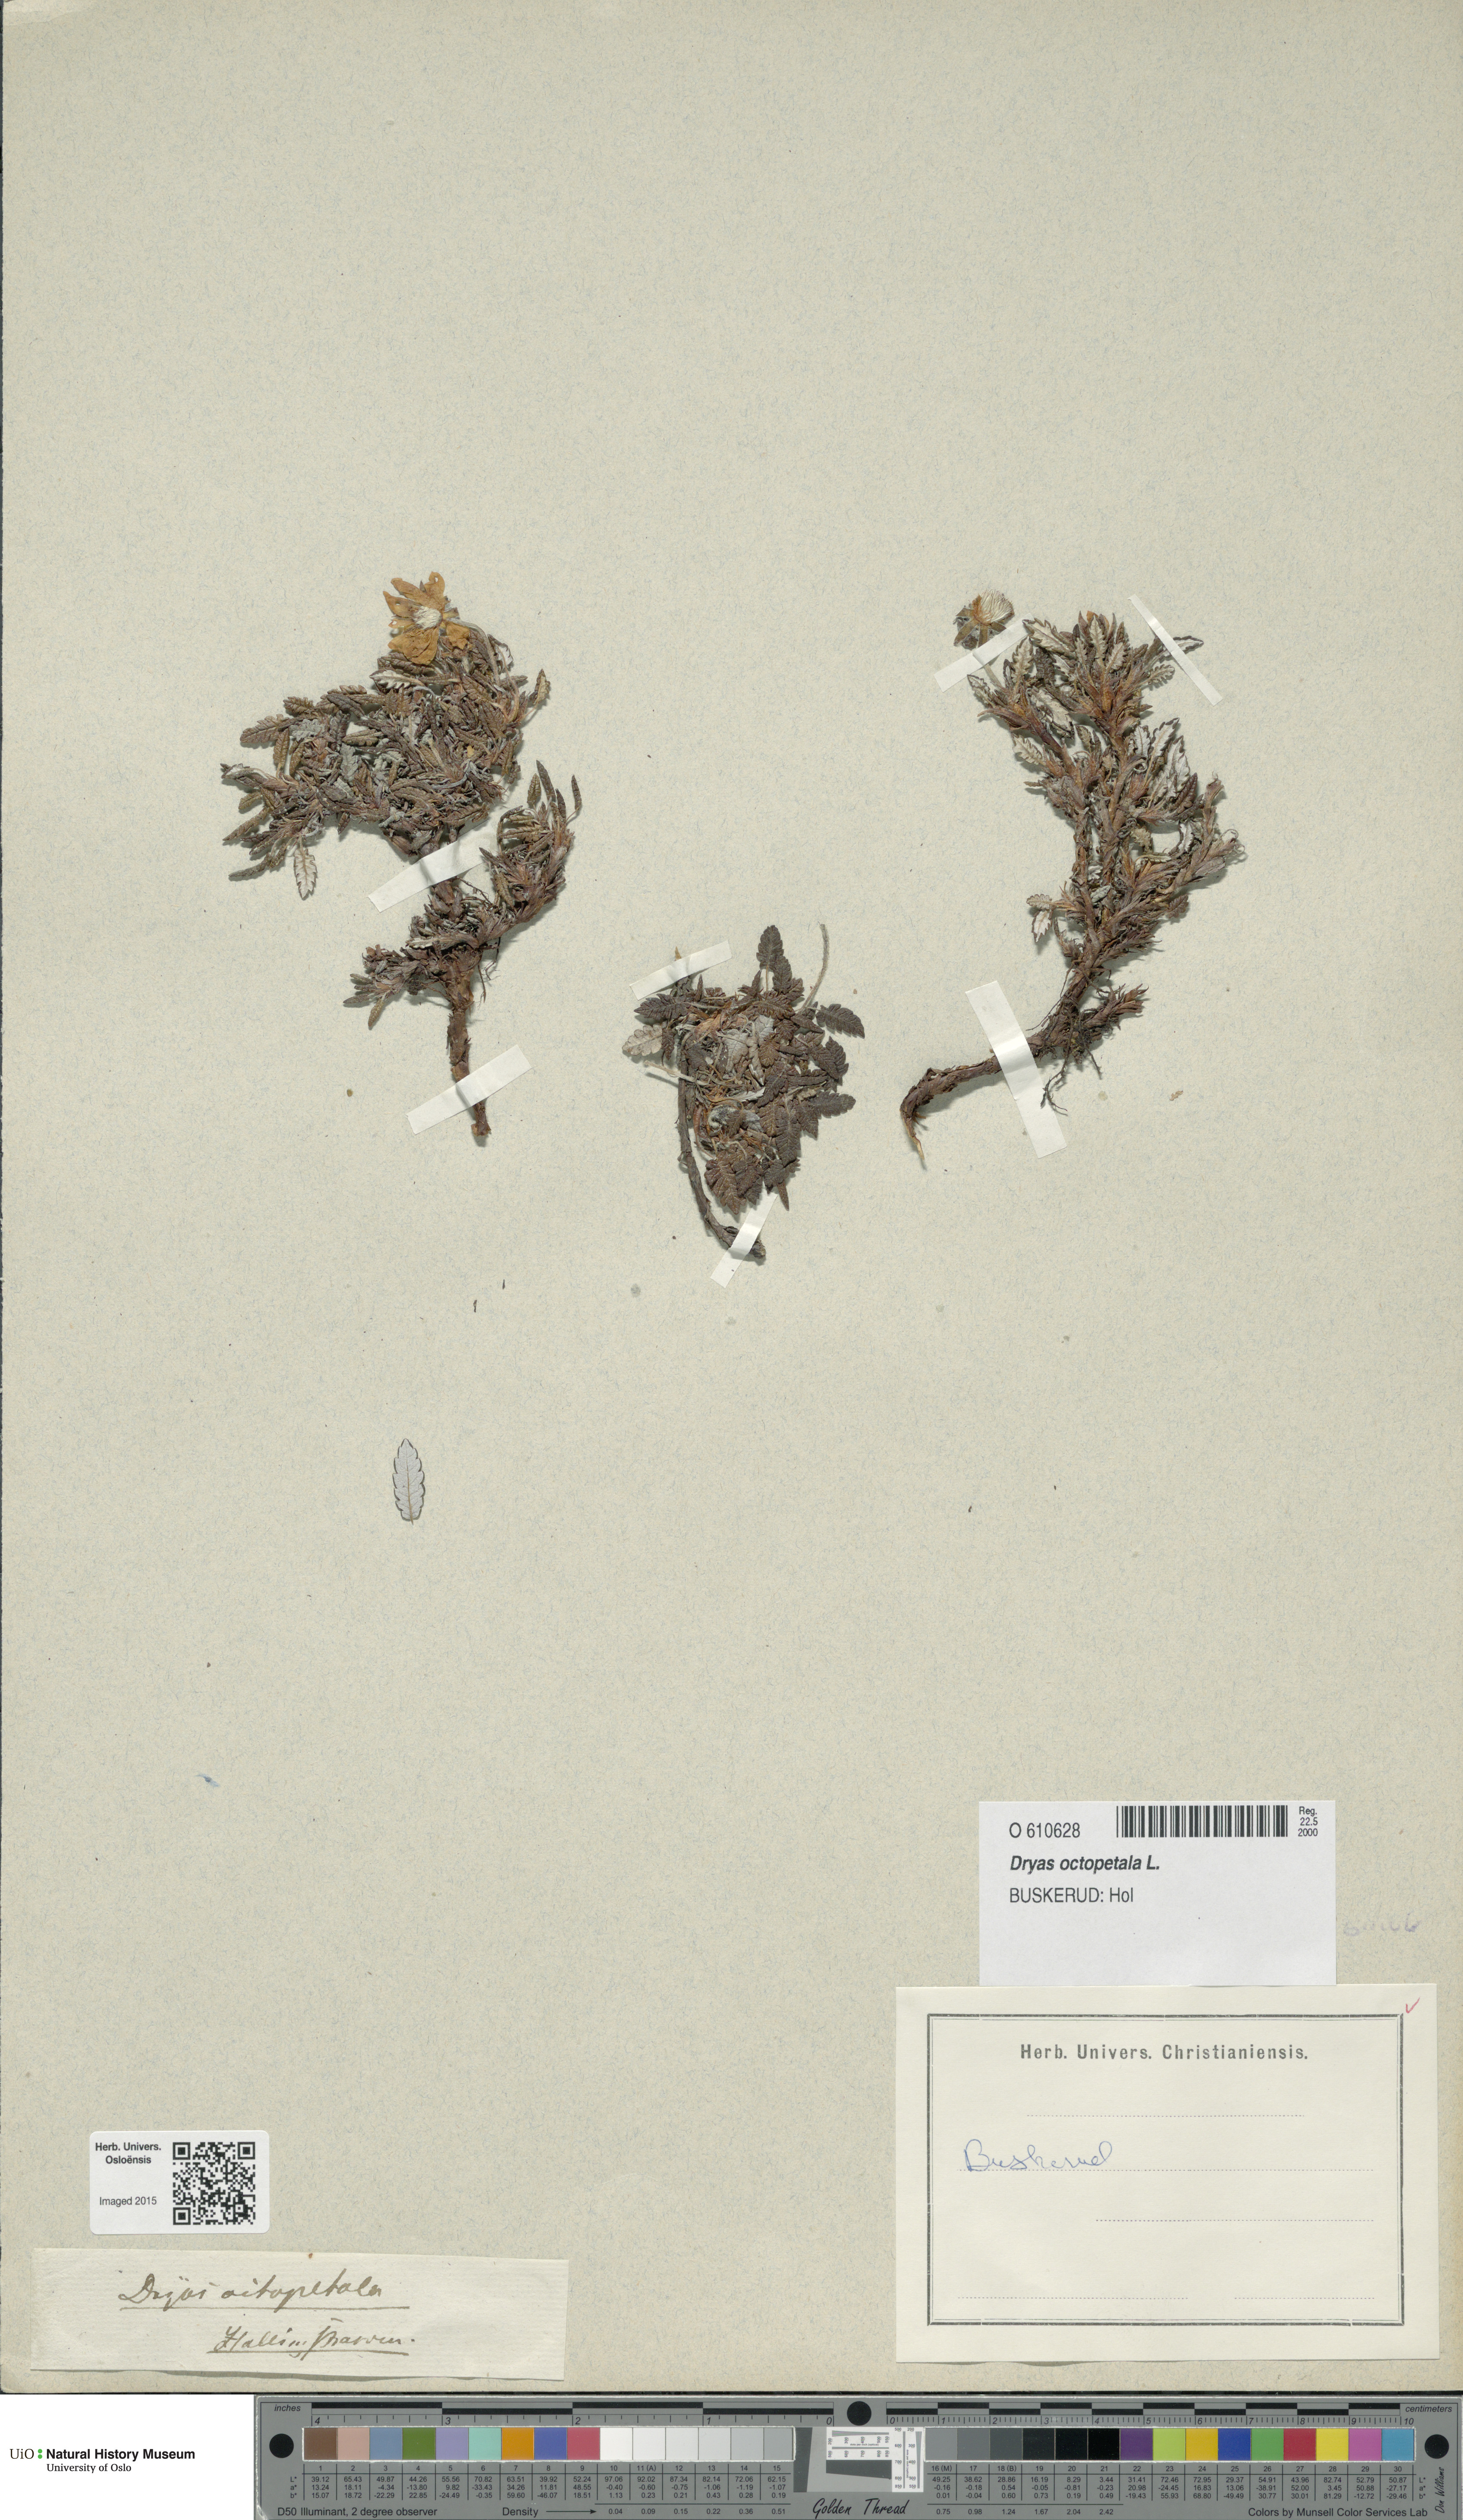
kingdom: Plantae
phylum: Tracheophyta
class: Magnoliopsida
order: Rosales
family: Rosaceae
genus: Dryas
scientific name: Dryas octopetala
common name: Eight-petal mountain-avens
